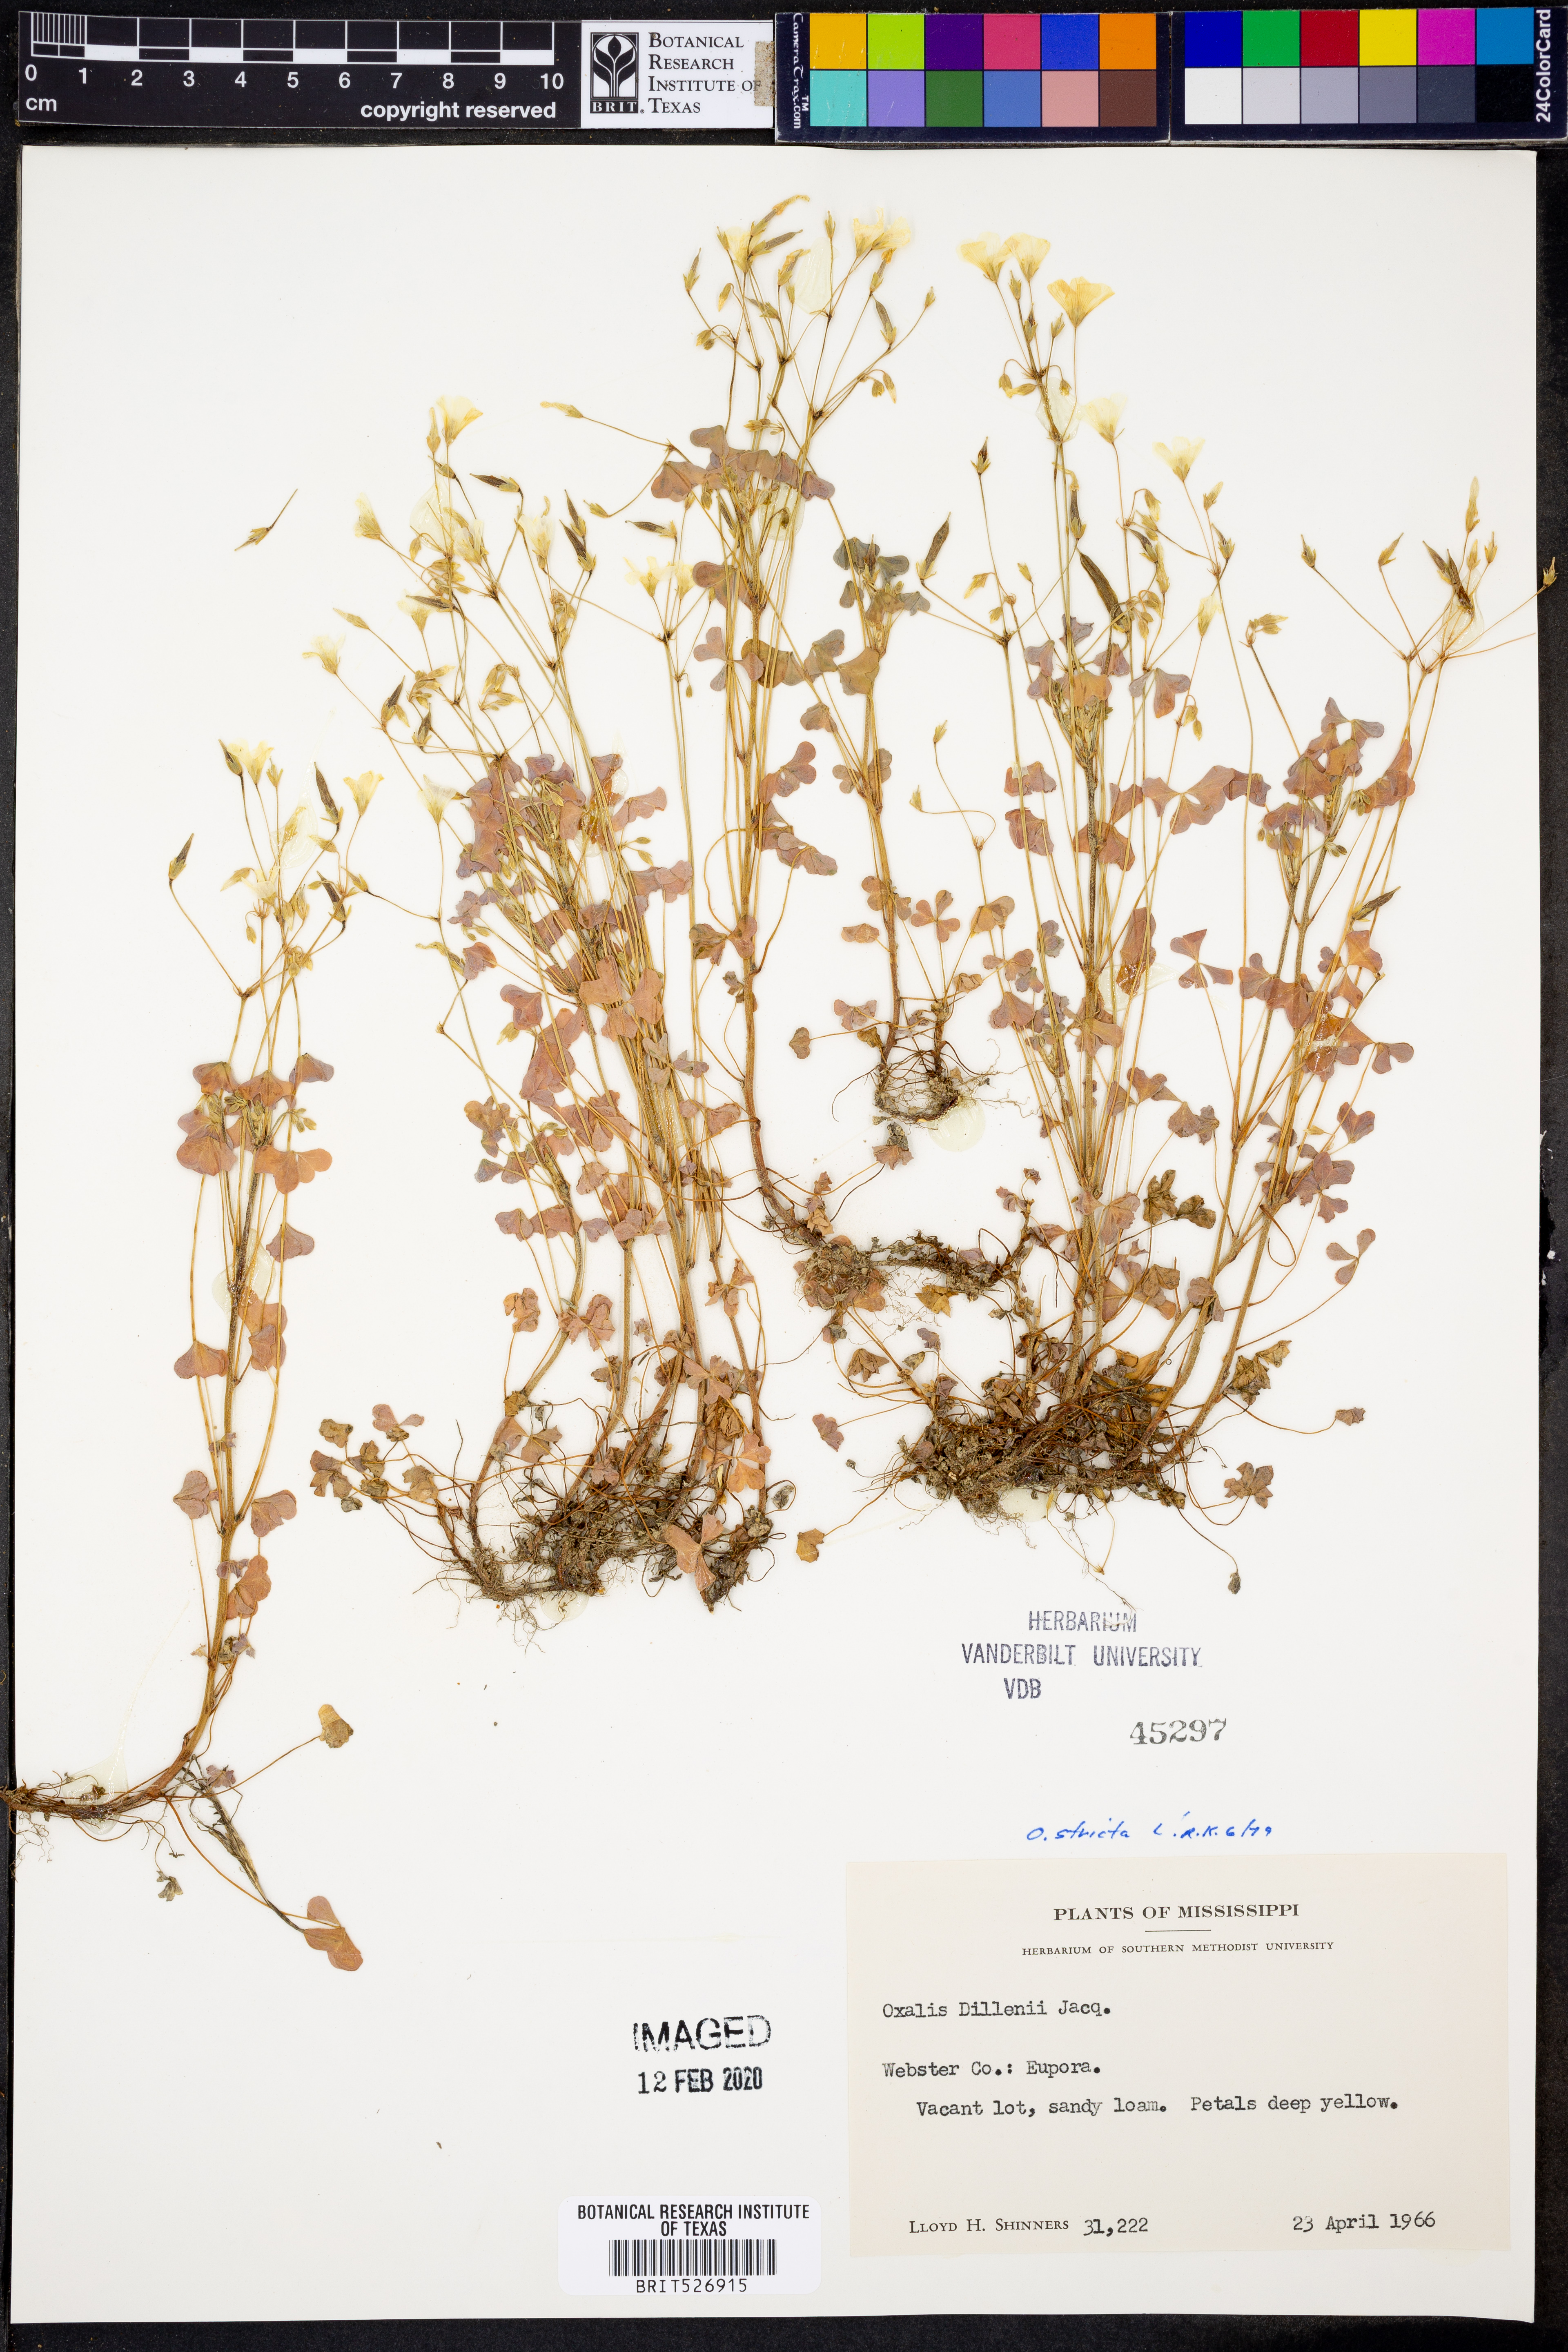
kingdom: Plantae
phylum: Tracheophyta
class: Magnoliopsida
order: Oxalidales
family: Oxalidaceae
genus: Oxalis
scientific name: Oxalis stricta
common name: Upright yellow-sorrel
